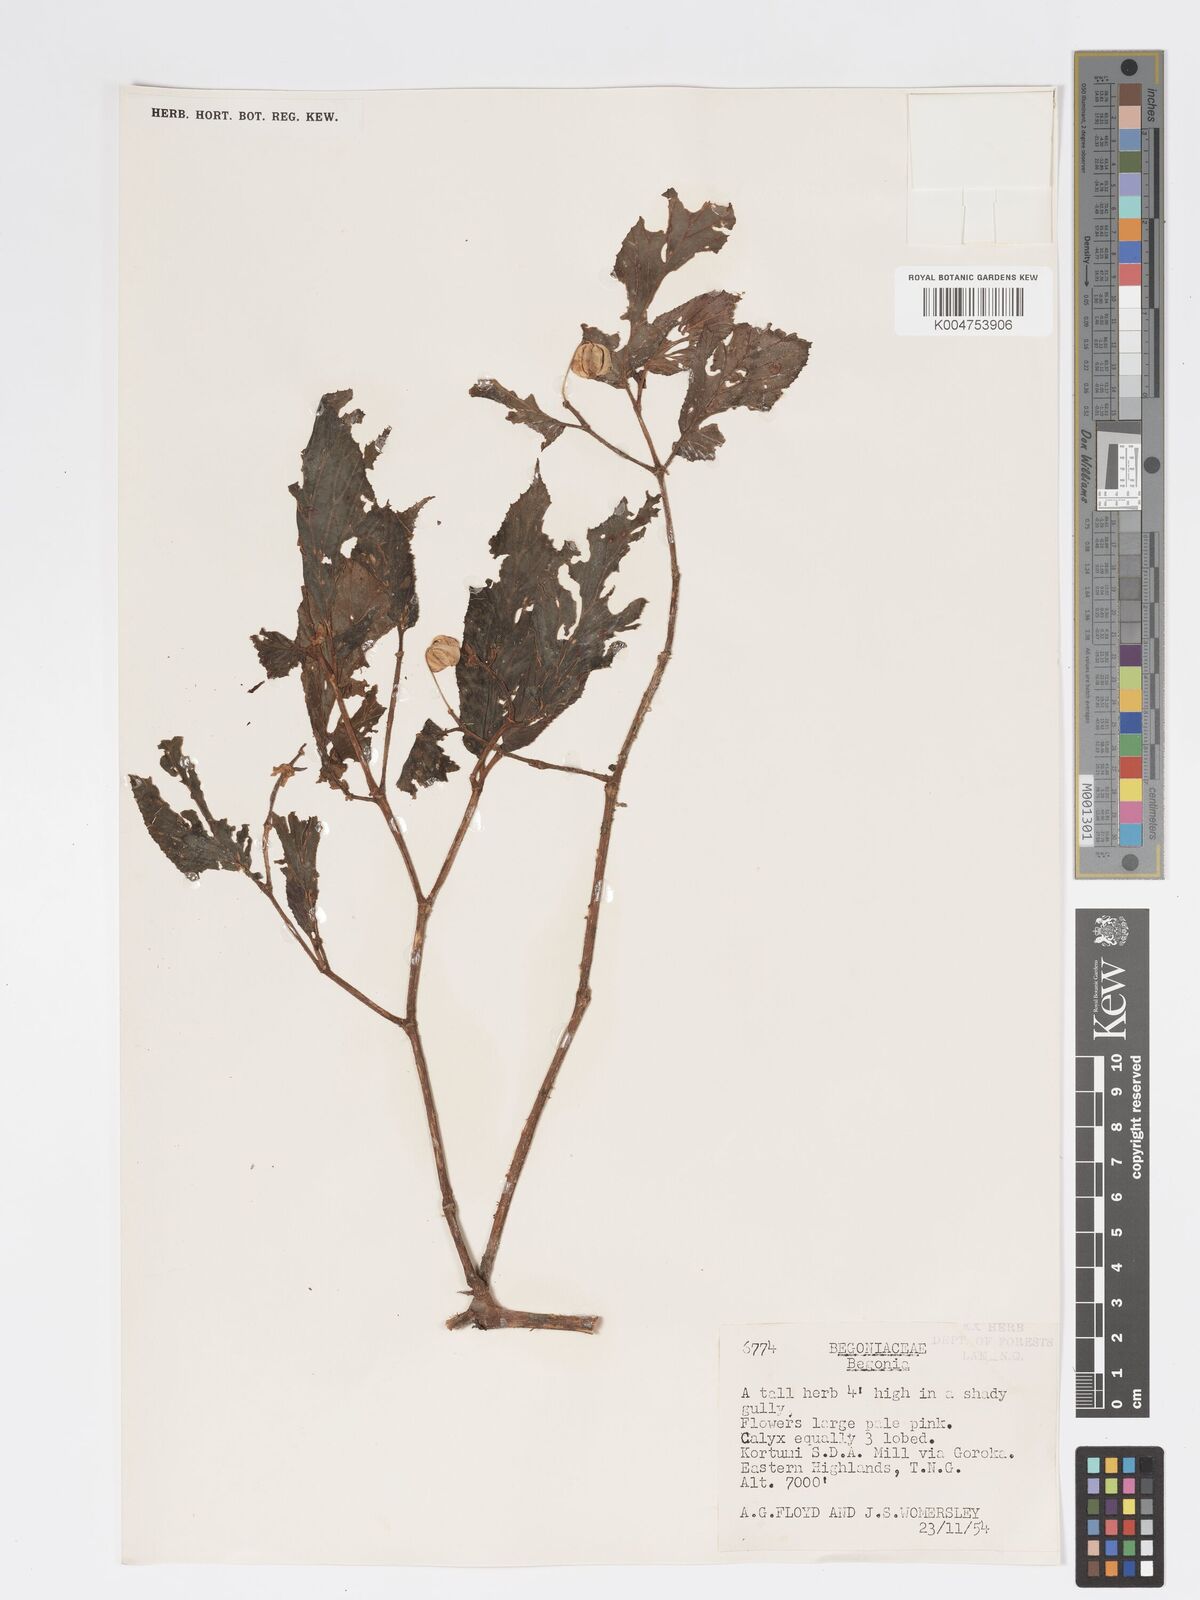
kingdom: Plantae
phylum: Tracheophyta
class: Magnoliopsida
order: Cucurbitales
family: Begoniaceae
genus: Begonia
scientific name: Begonia
